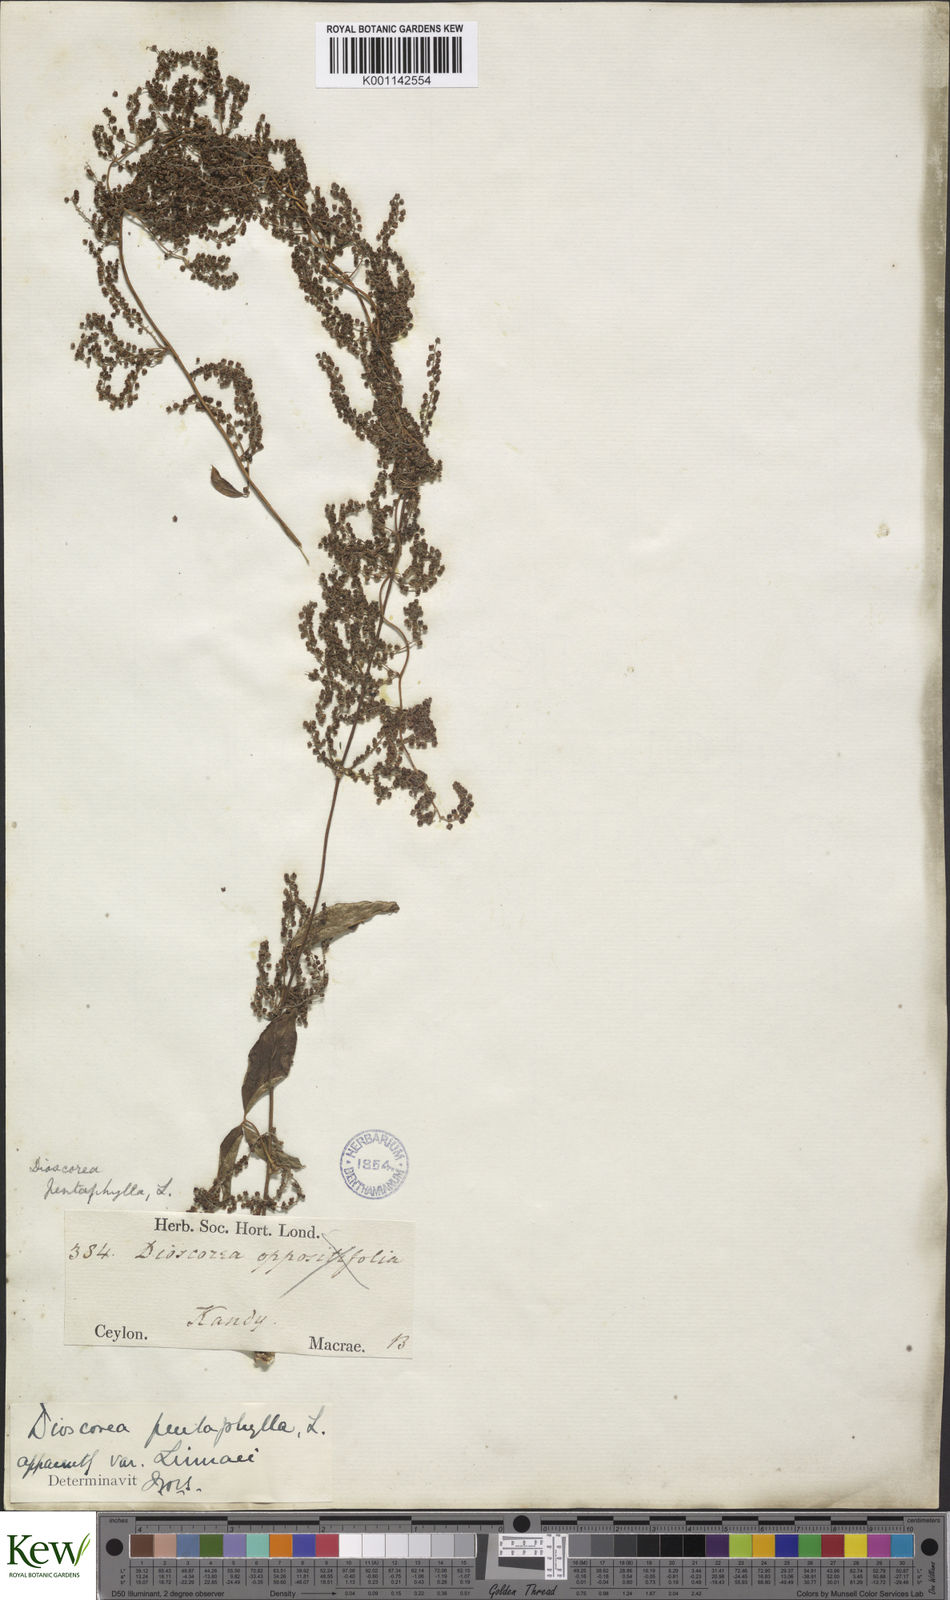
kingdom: Plantae
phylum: Tracheophyta
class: Liliopsida
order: Dioscoreales
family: Dioscoreaceae
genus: Dioscorea
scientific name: Dioscorea pentaphylla
